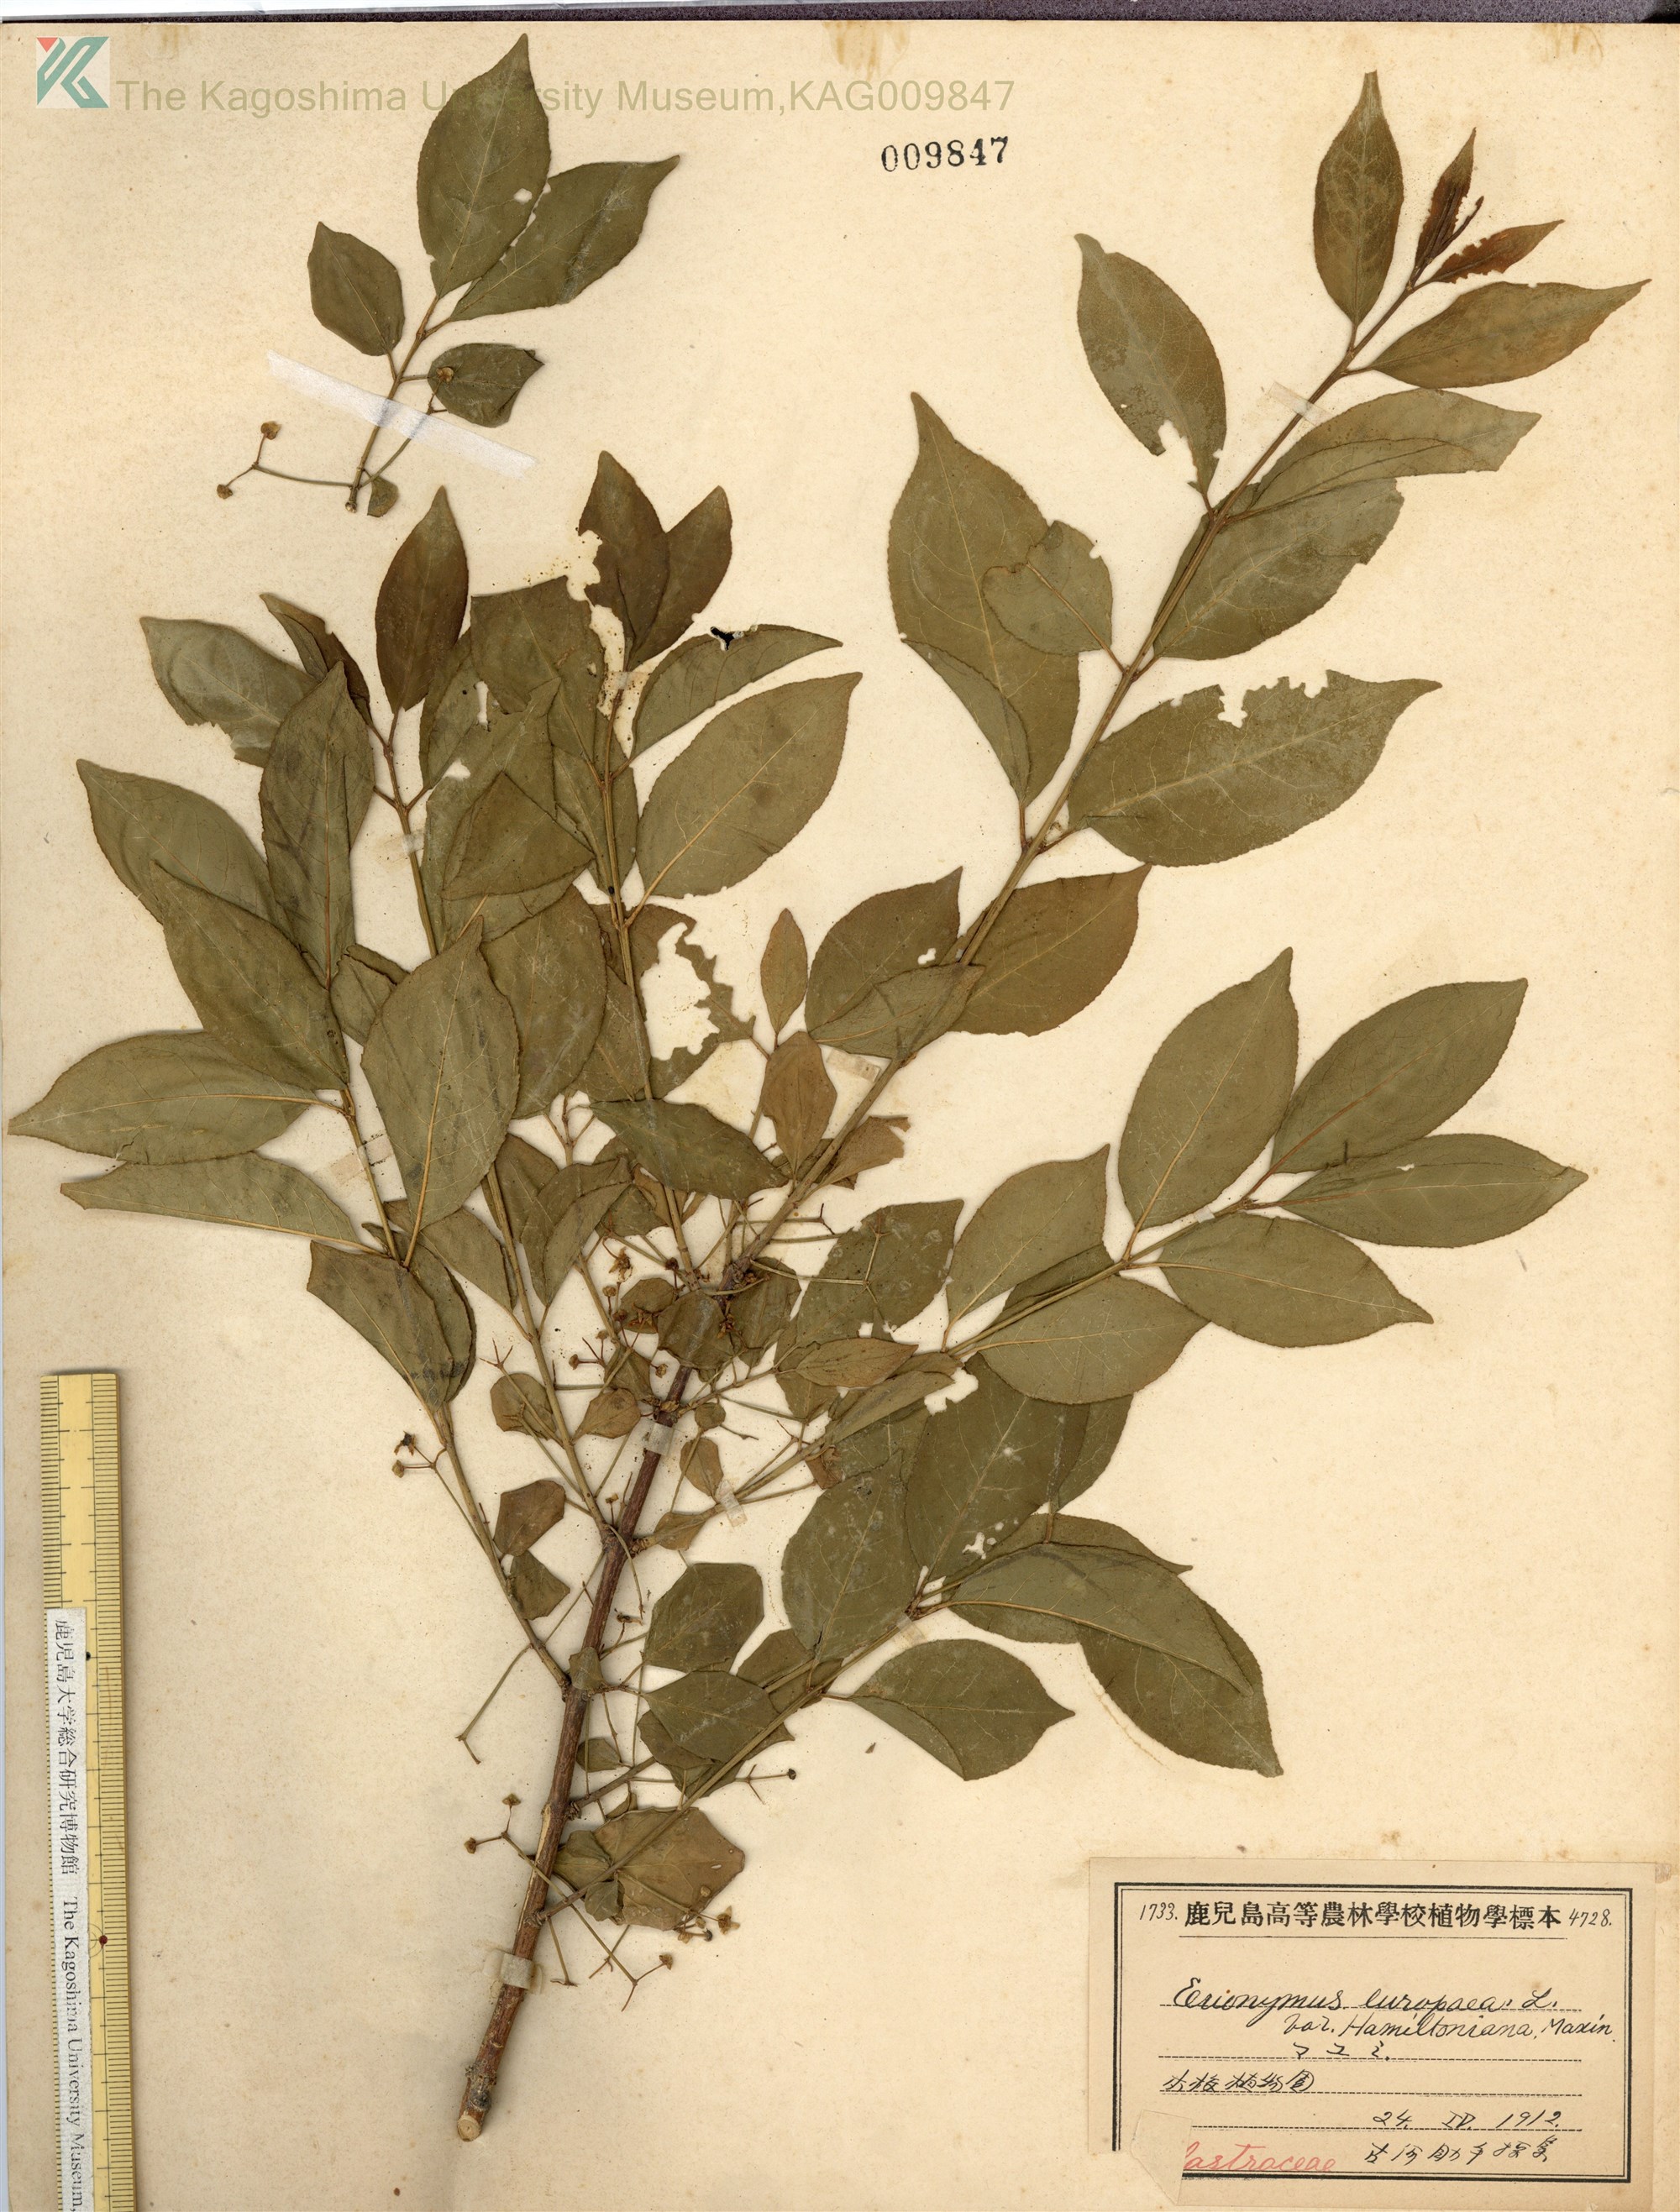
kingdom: Plantae
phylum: Tracheophyta
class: Magnoliopsida
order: Celastrales
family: Celastraceae
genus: Euonymus
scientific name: Euonymus hamiltonianus
